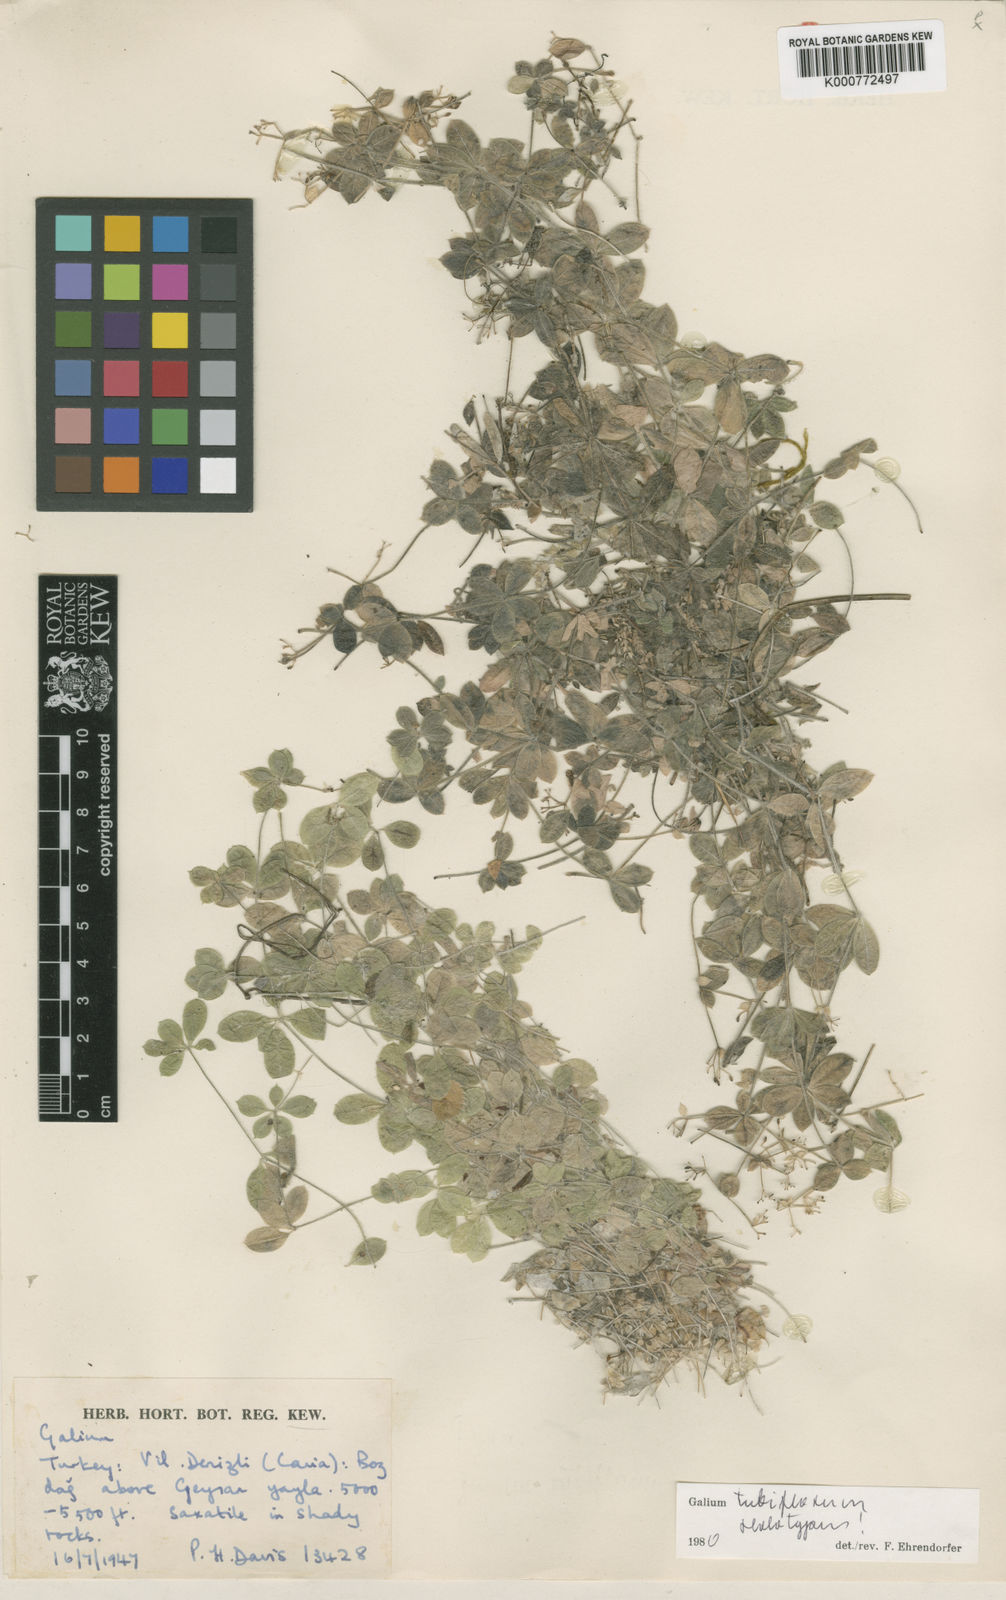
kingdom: Plantae
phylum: Tracheophyta
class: Magnoliopsida
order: Gentianales
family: Rubiaceae
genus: Galium
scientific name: Galium tubiflorum
